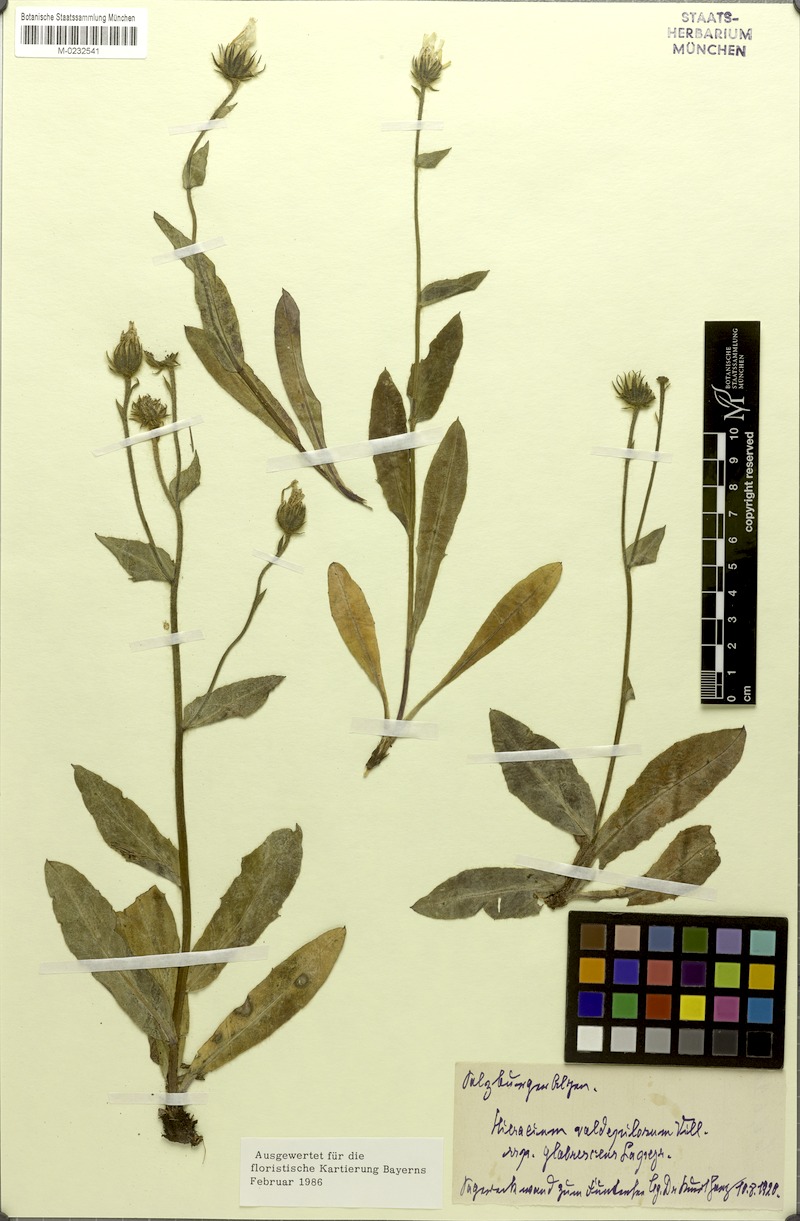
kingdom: Plantae
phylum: Tracheophyta
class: Magnoliopsida
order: Asterales
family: Asteraceae
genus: Hieracium
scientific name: Hieracium valdepilosum
